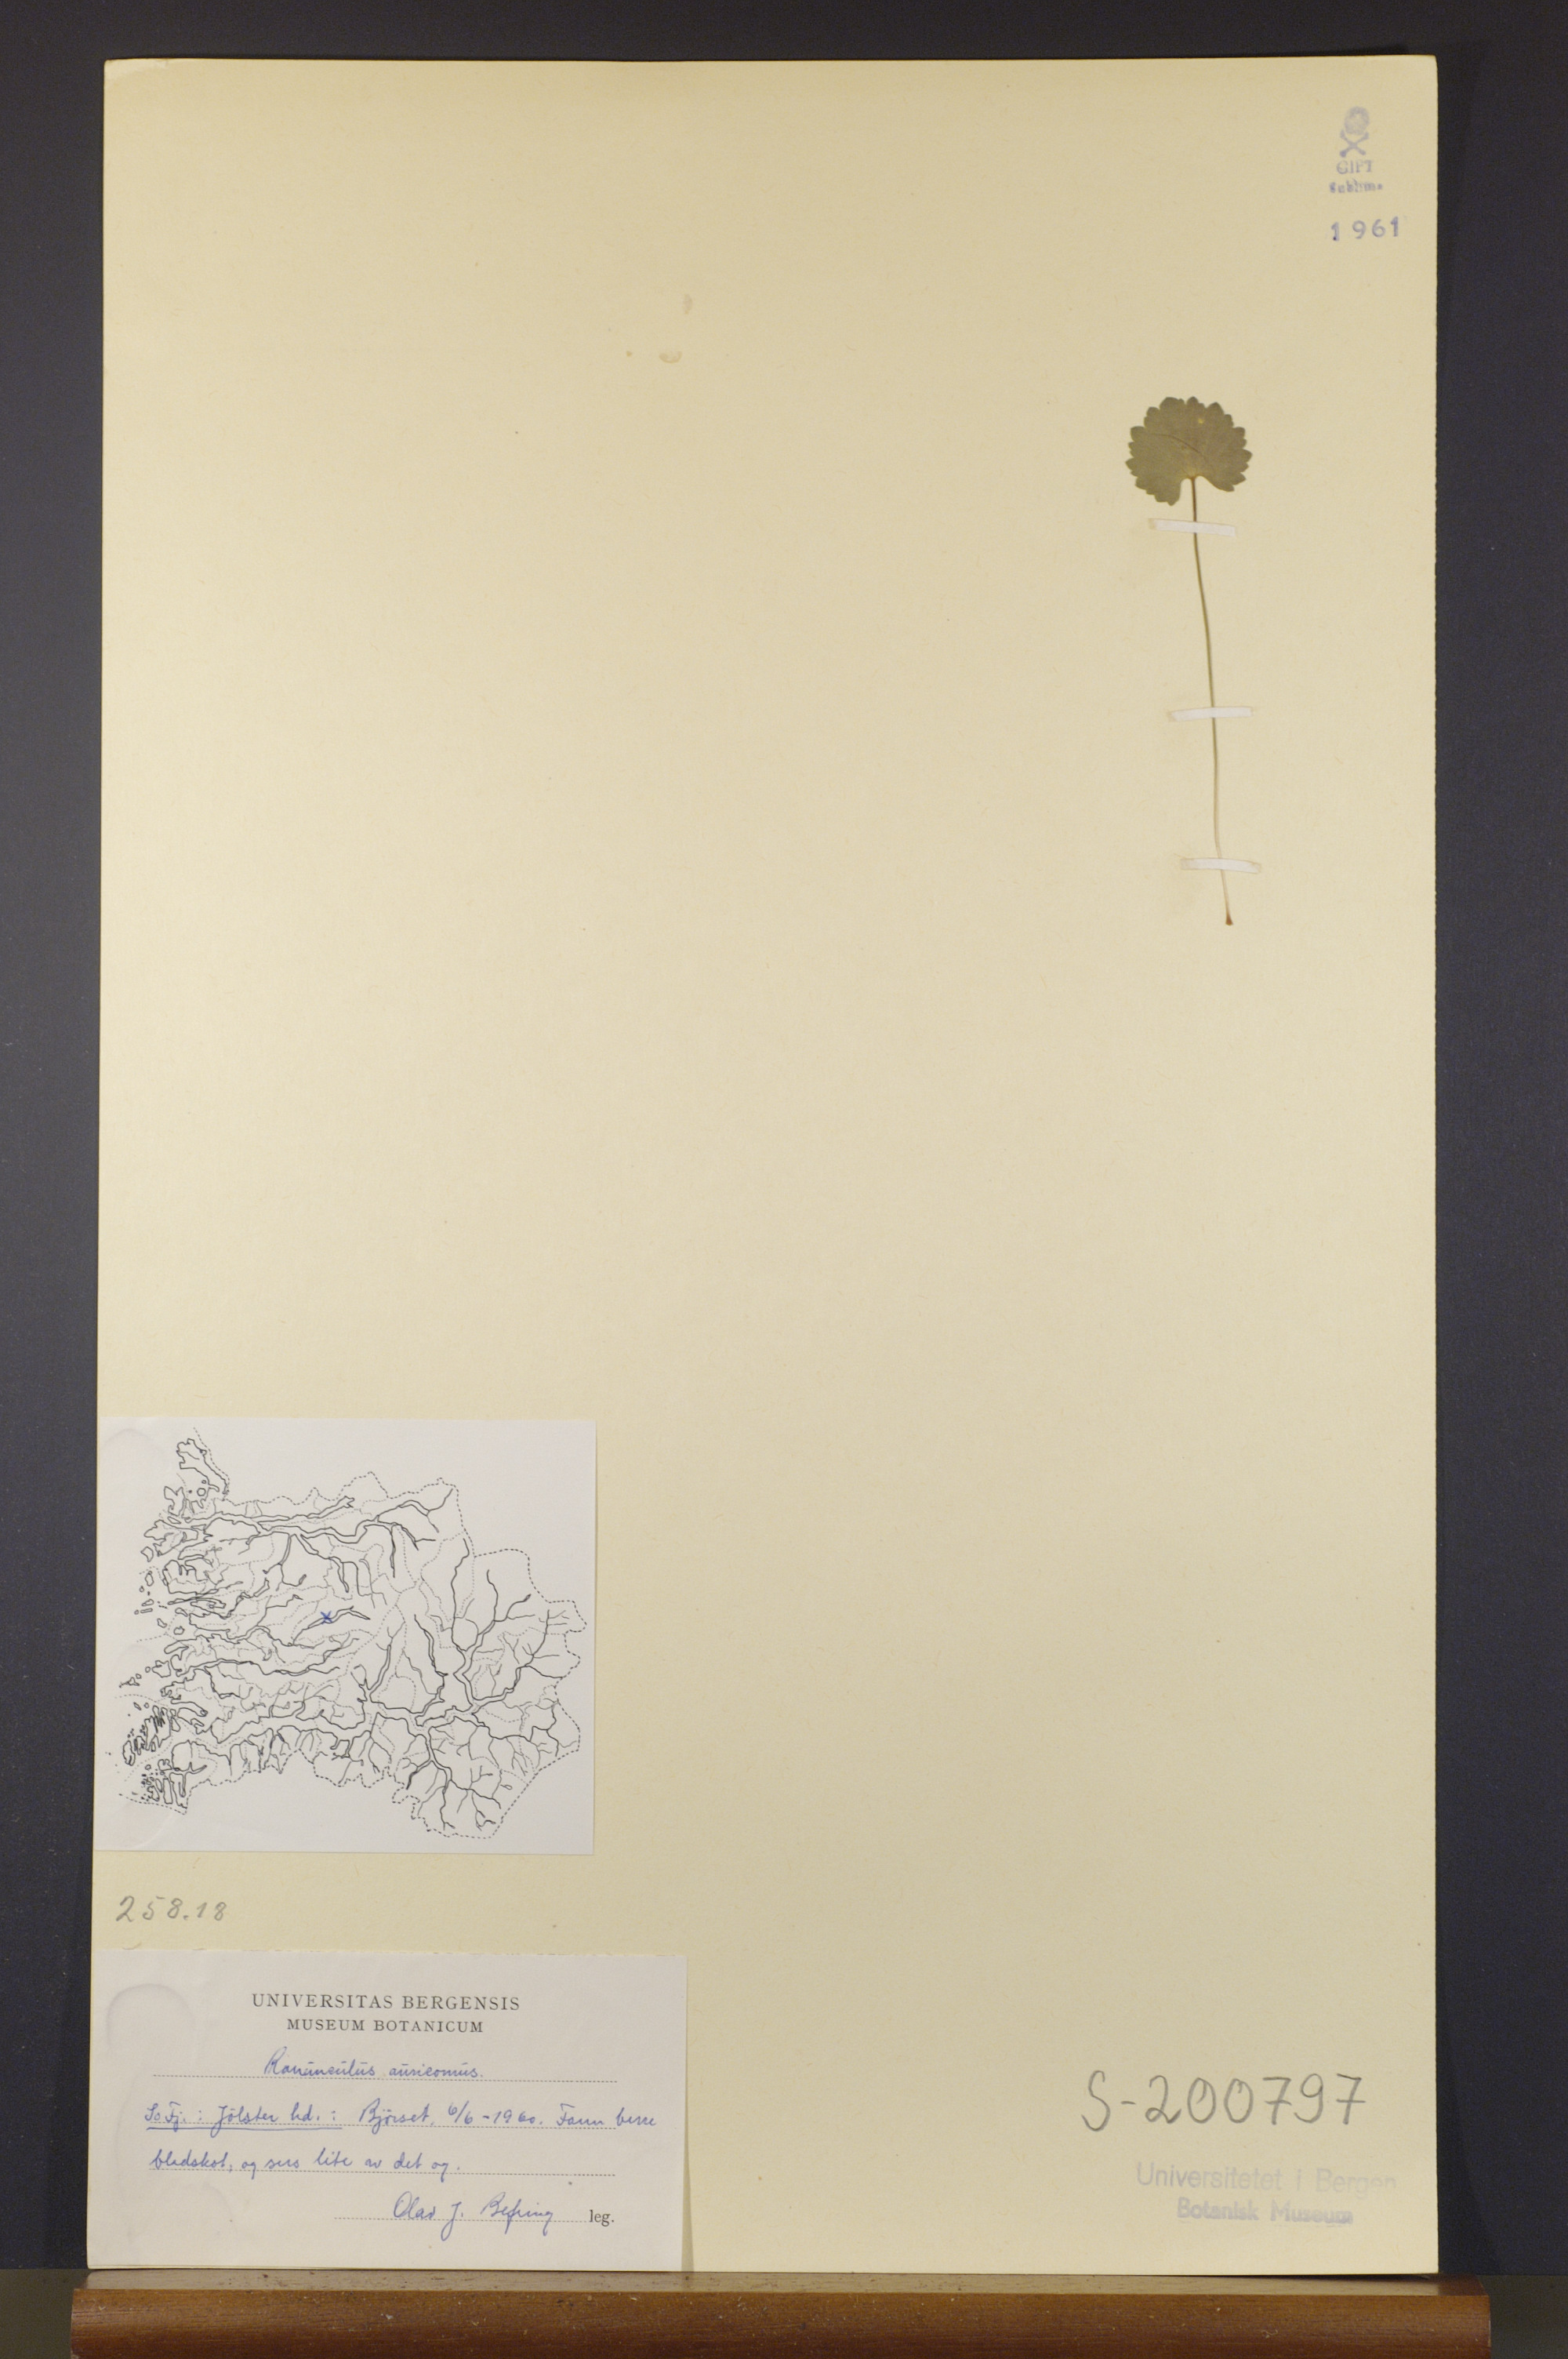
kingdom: Plantae
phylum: Tracheophyta
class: Magnoliopsida
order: Ranunculales
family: Ranunculaceae
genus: Ranunculus
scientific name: Ranunculus auricomus
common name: Goldilocks buttercup
